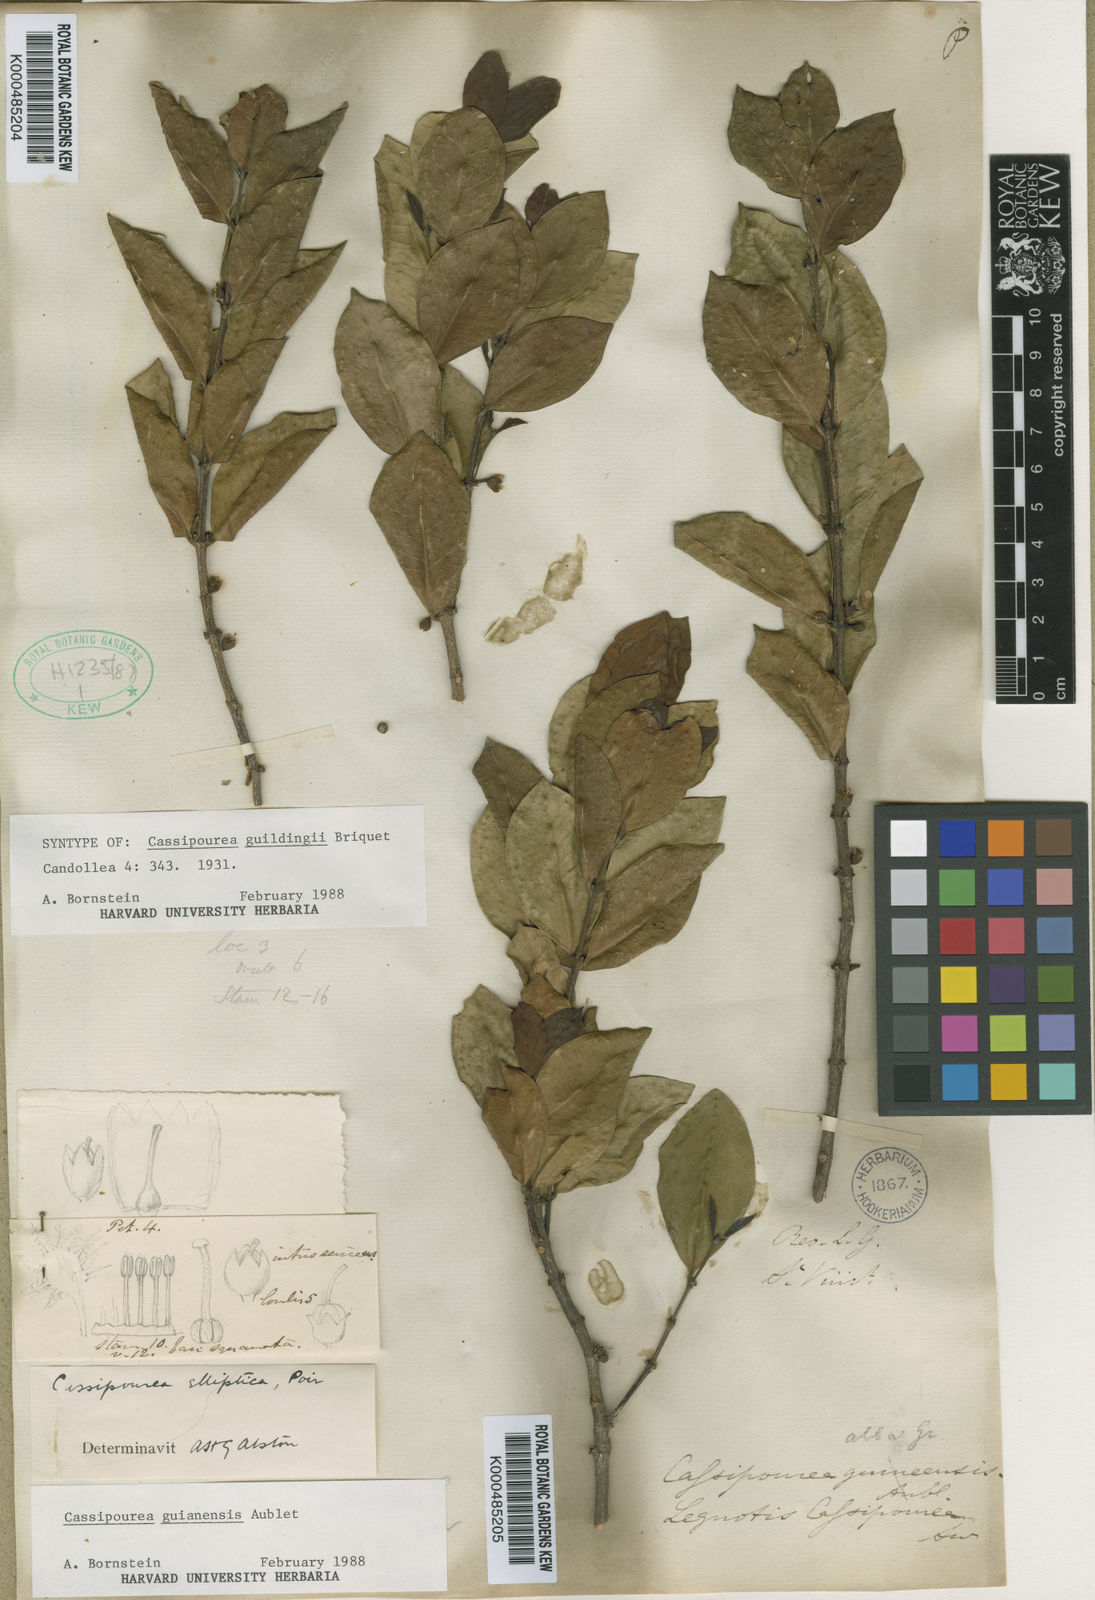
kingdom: Plantae
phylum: Tracheophyta
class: Magnoliopsida
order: Malpighiales
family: Rhizophoraceae
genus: Cassipourea
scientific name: Cassipourea guianensis
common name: Bastard waterwood
